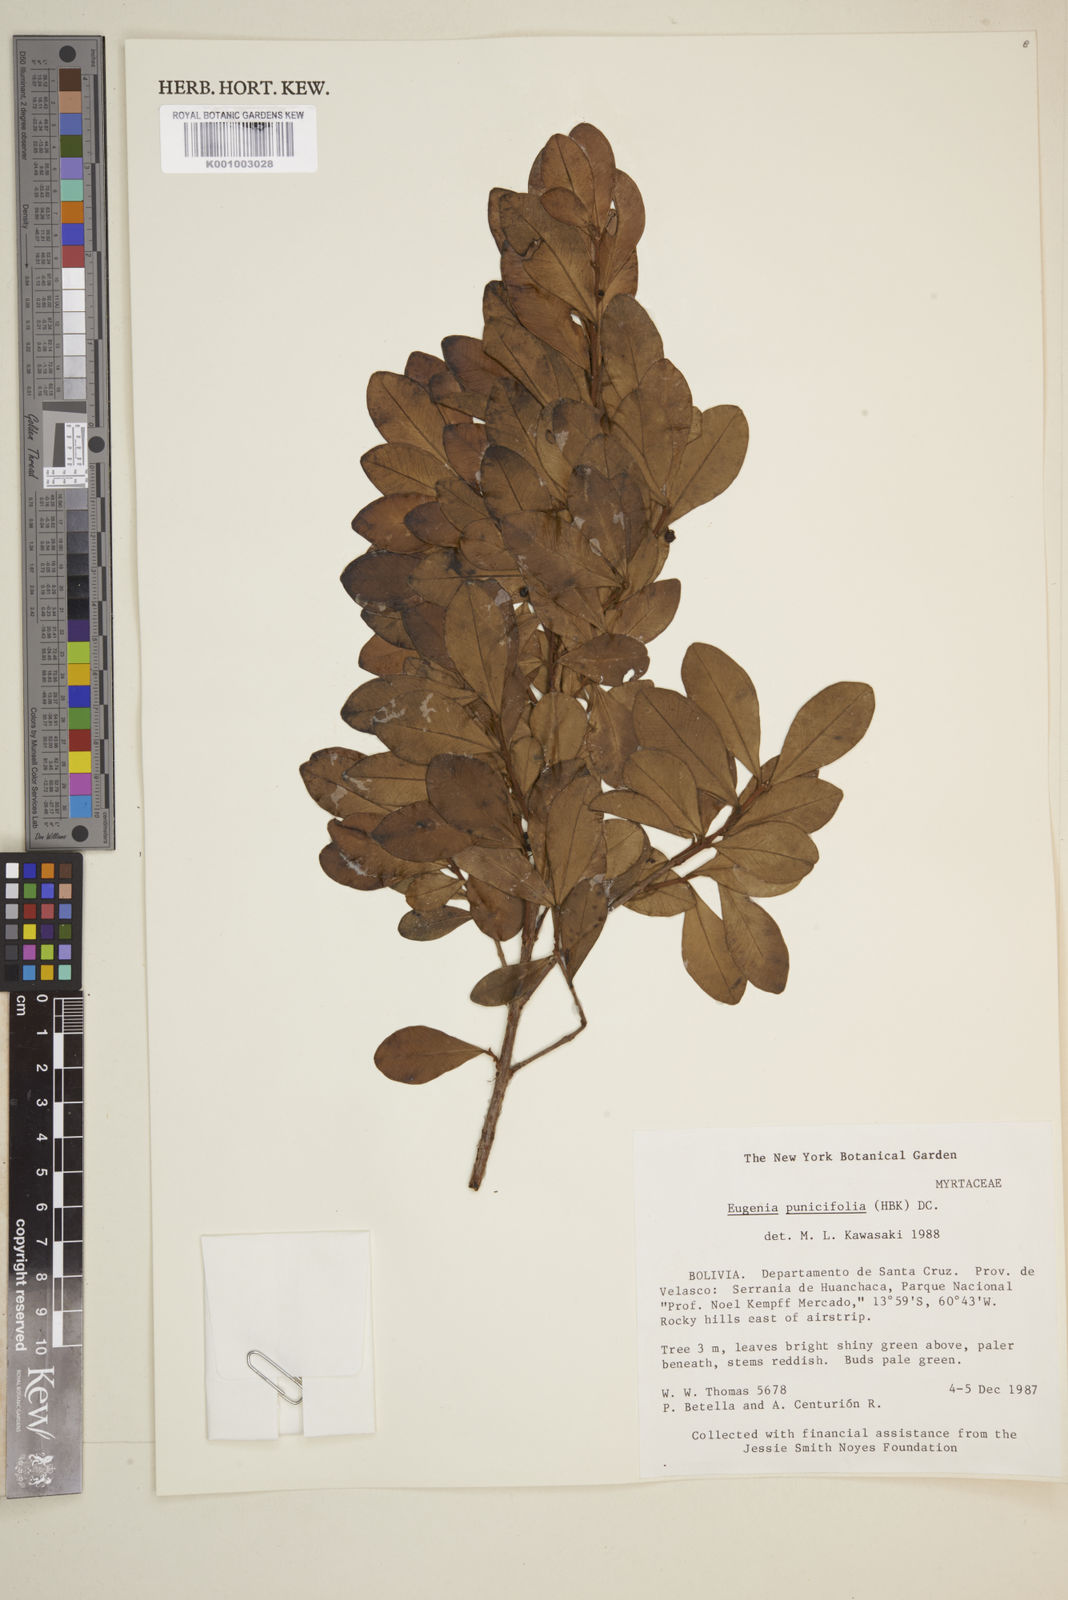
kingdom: Plantae
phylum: Tracheophyta
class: Magnoliopsida
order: Myrtales
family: Myrtaceae
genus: Eugenia
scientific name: Eugenia punicifolia
